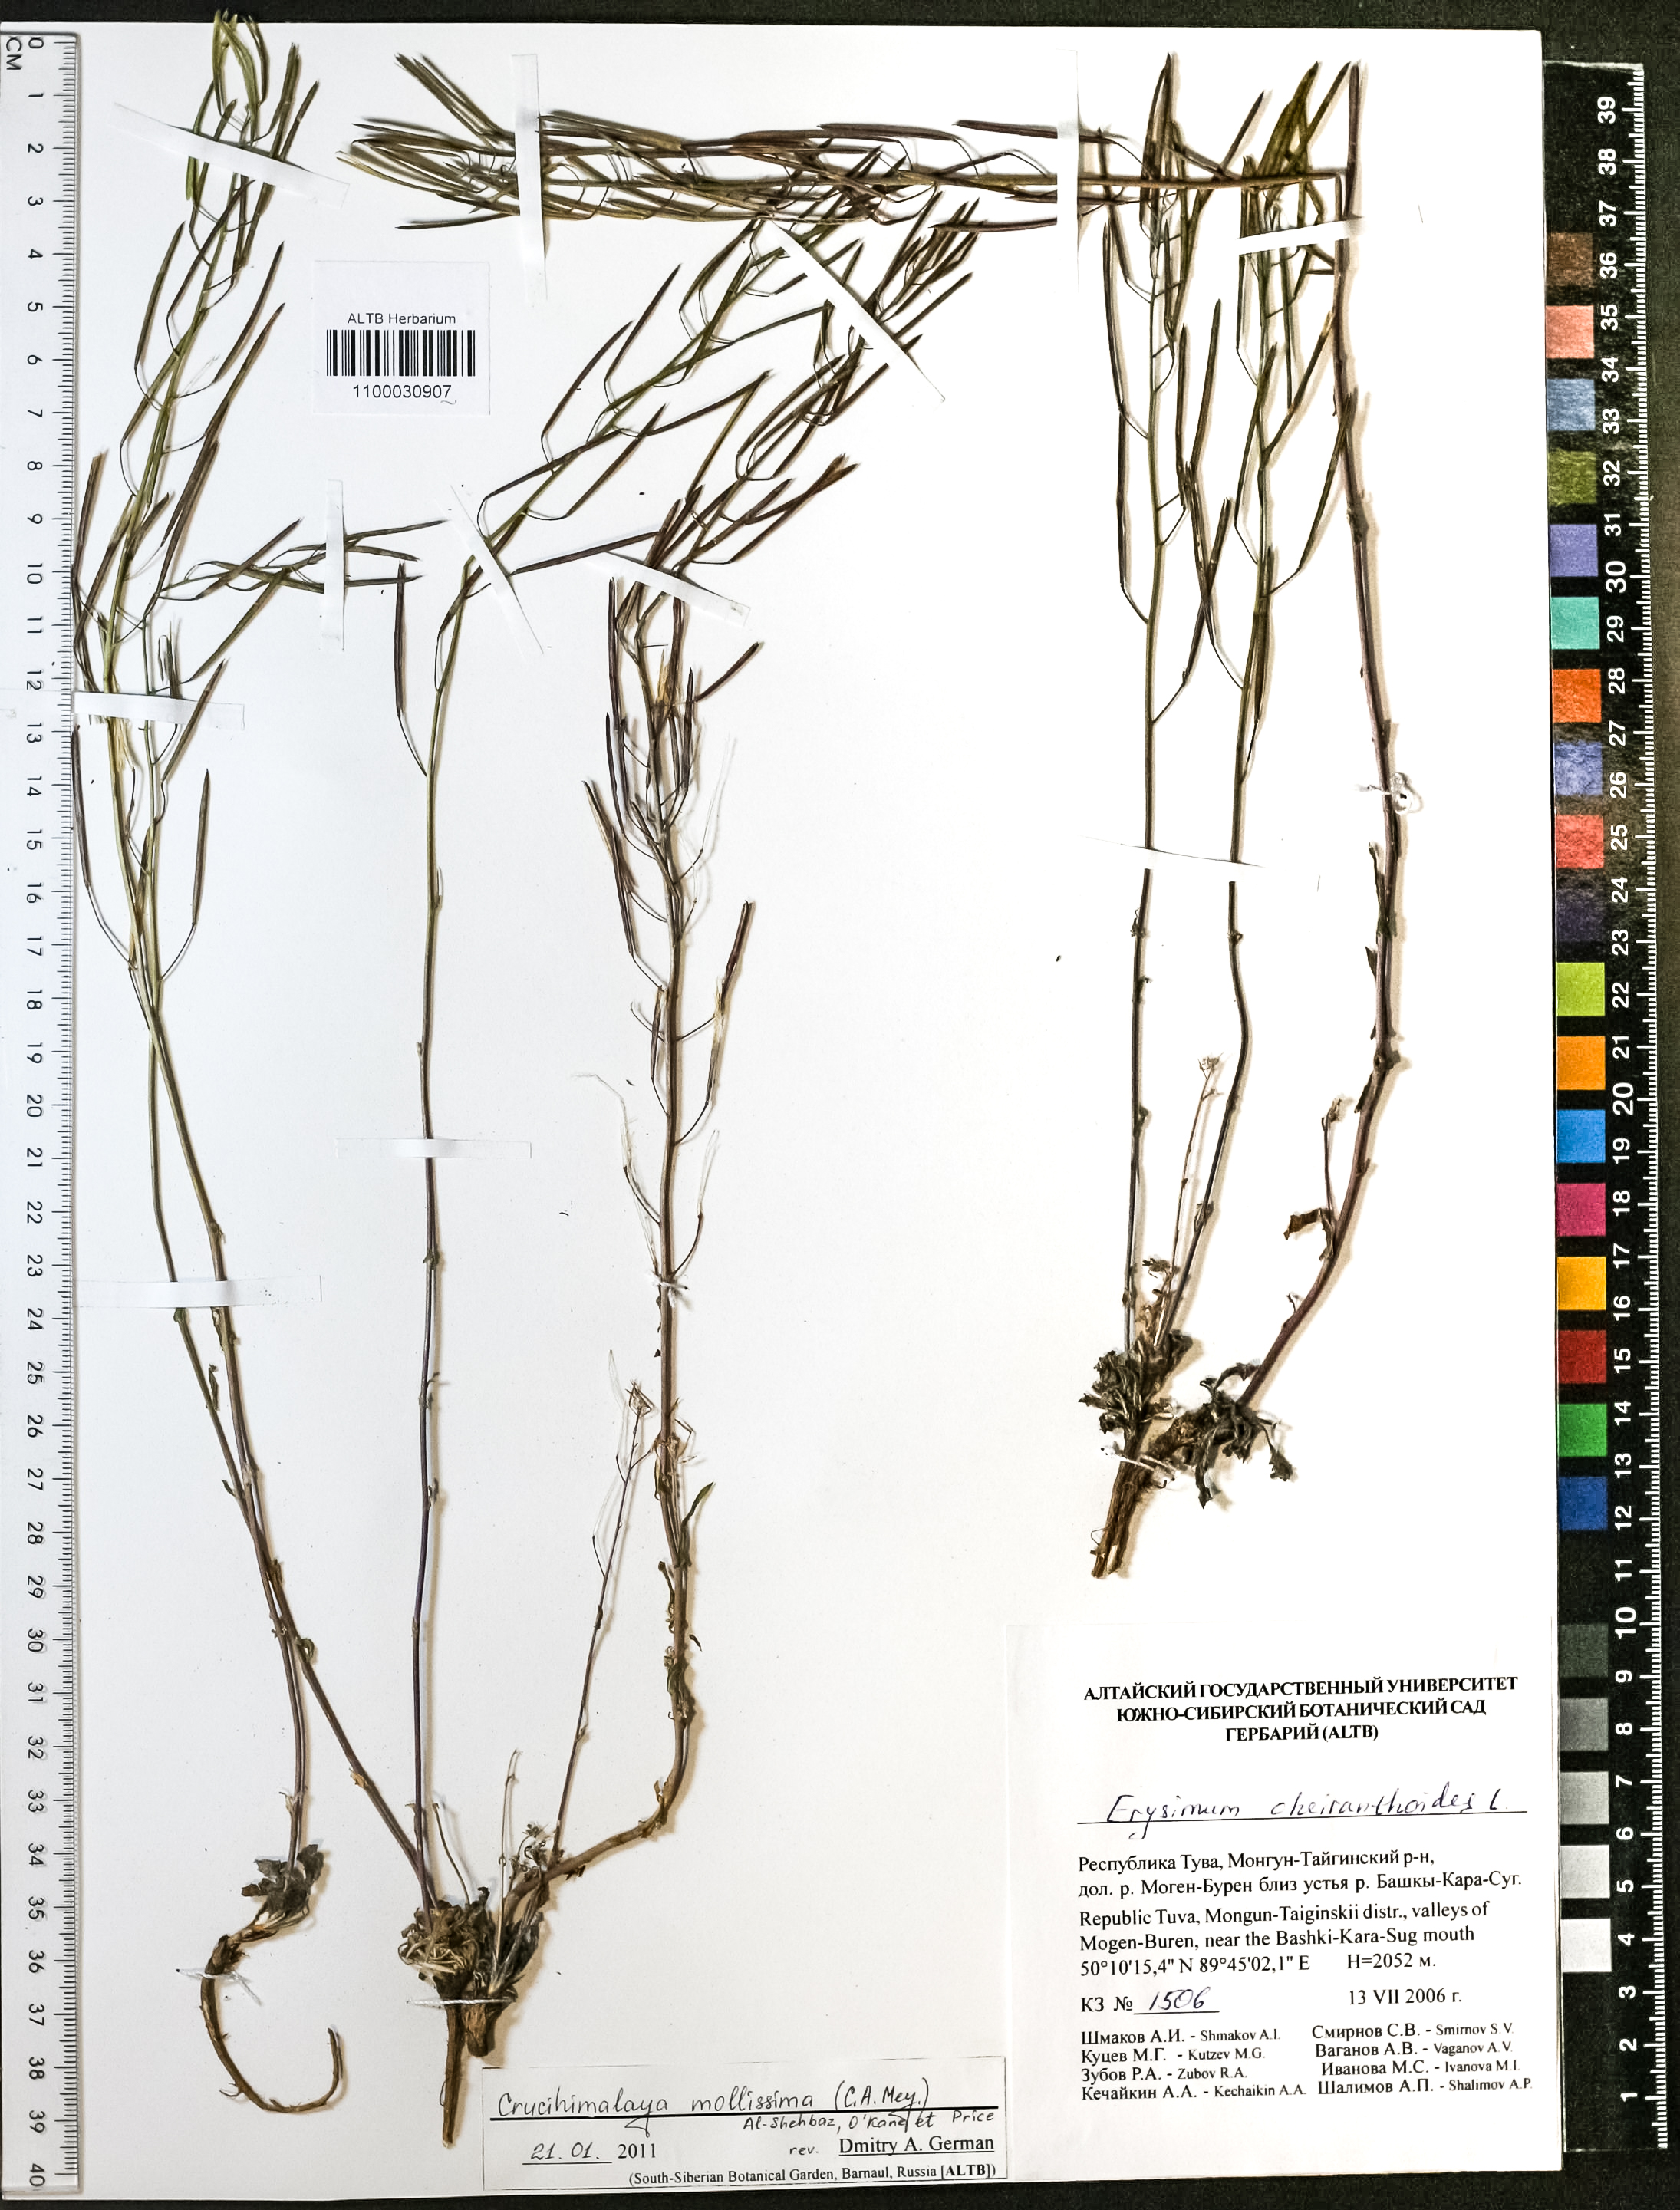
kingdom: Plantae
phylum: Tracheophyta
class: Magnoliopsida
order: Brassicales
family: Brassicaceae
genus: Crucihimalaya
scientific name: Crucihimalaya mollissima
